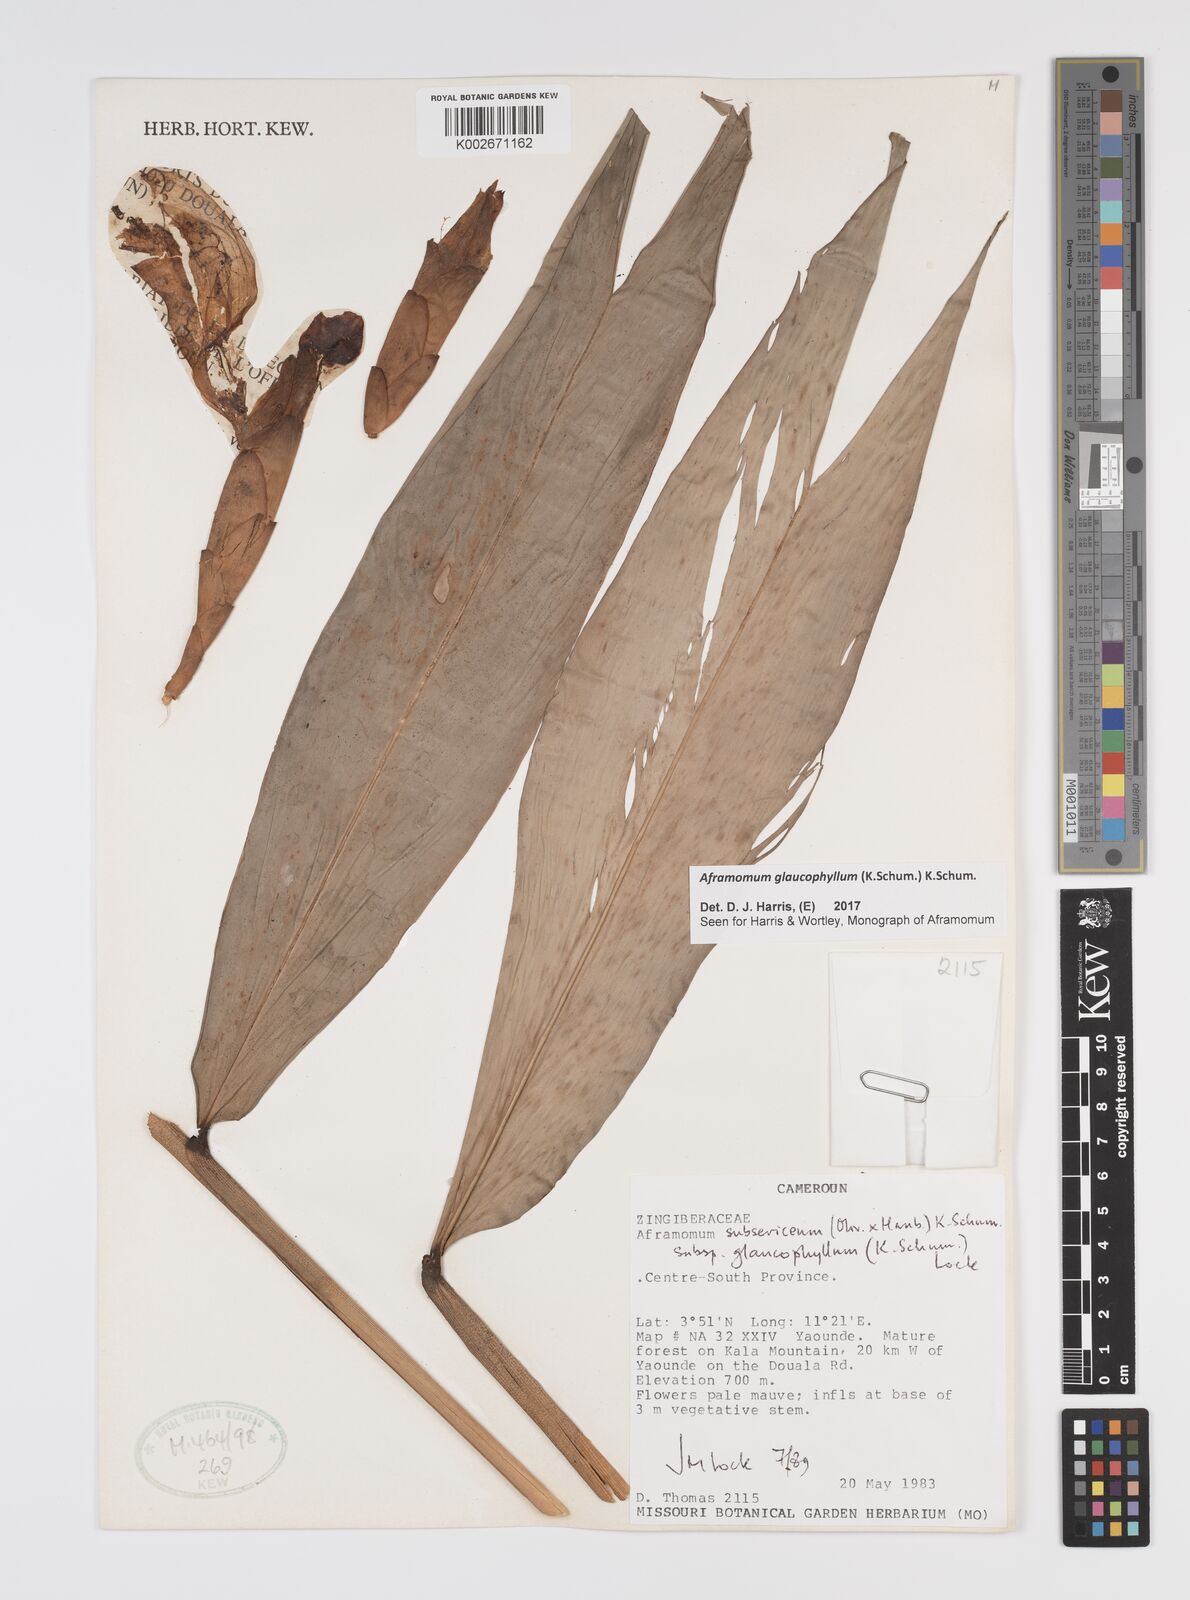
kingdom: Plantae
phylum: Tracheophyta
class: Liliopsida
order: Zingiberales
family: Zingiberaceae
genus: Aframomum
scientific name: Aframomum glaucophyllum
